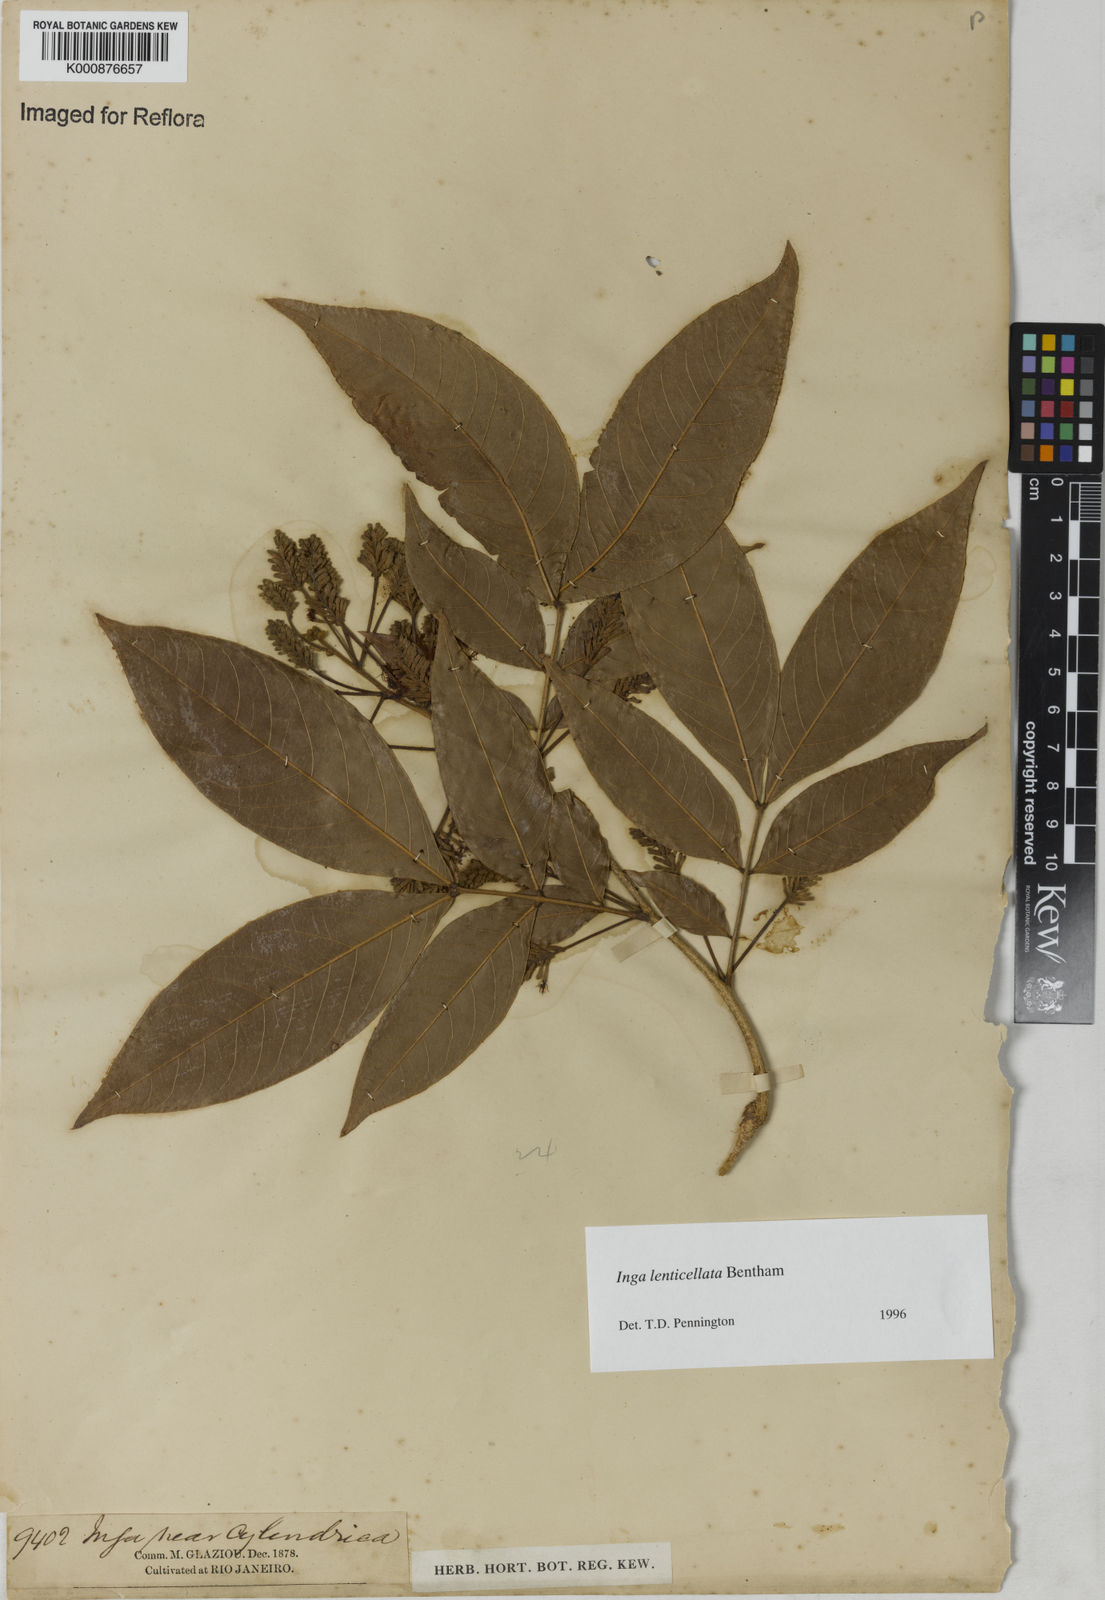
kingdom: Plantae
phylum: Tracheophyta
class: Magnoliopsida
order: Fabales
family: Fabaceae
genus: Inga
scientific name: Inga lenticellata
